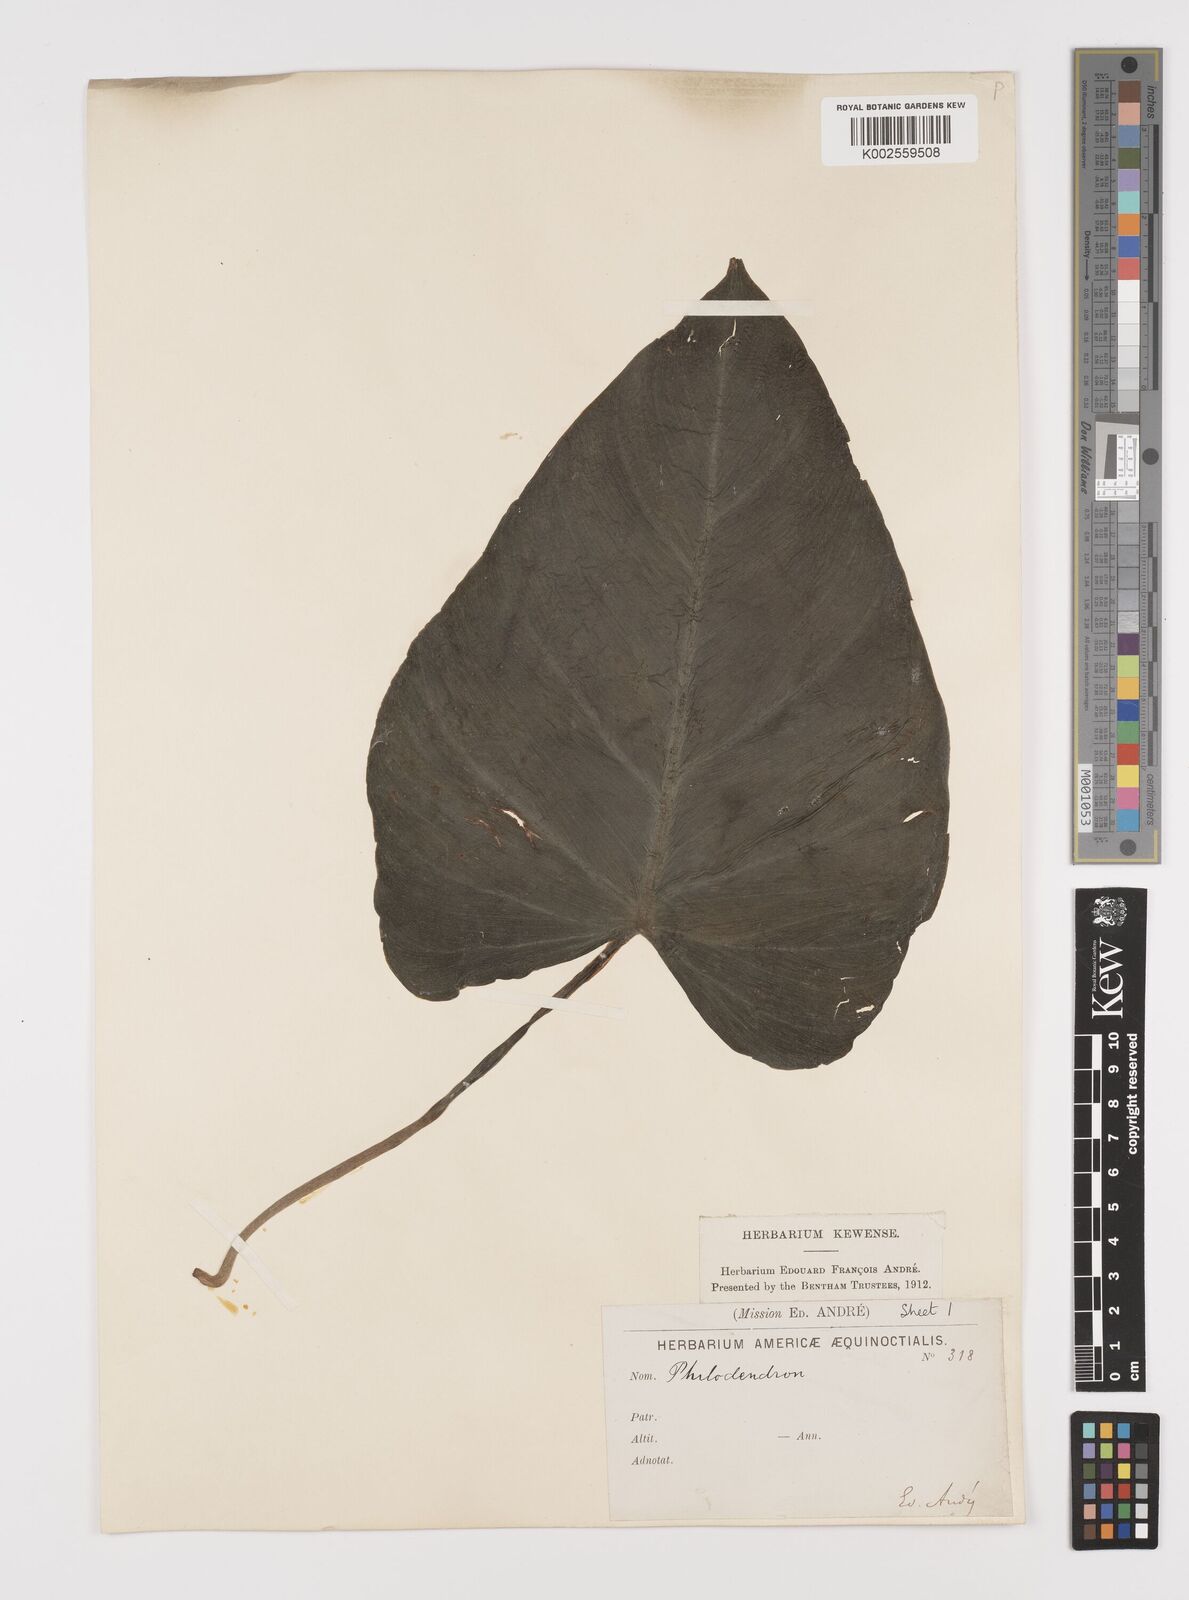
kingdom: Plantae
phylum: Tracheophyta
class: Liliopsida
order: Alismatales
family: Araceae
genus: Philodendron
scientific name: Philodendron
